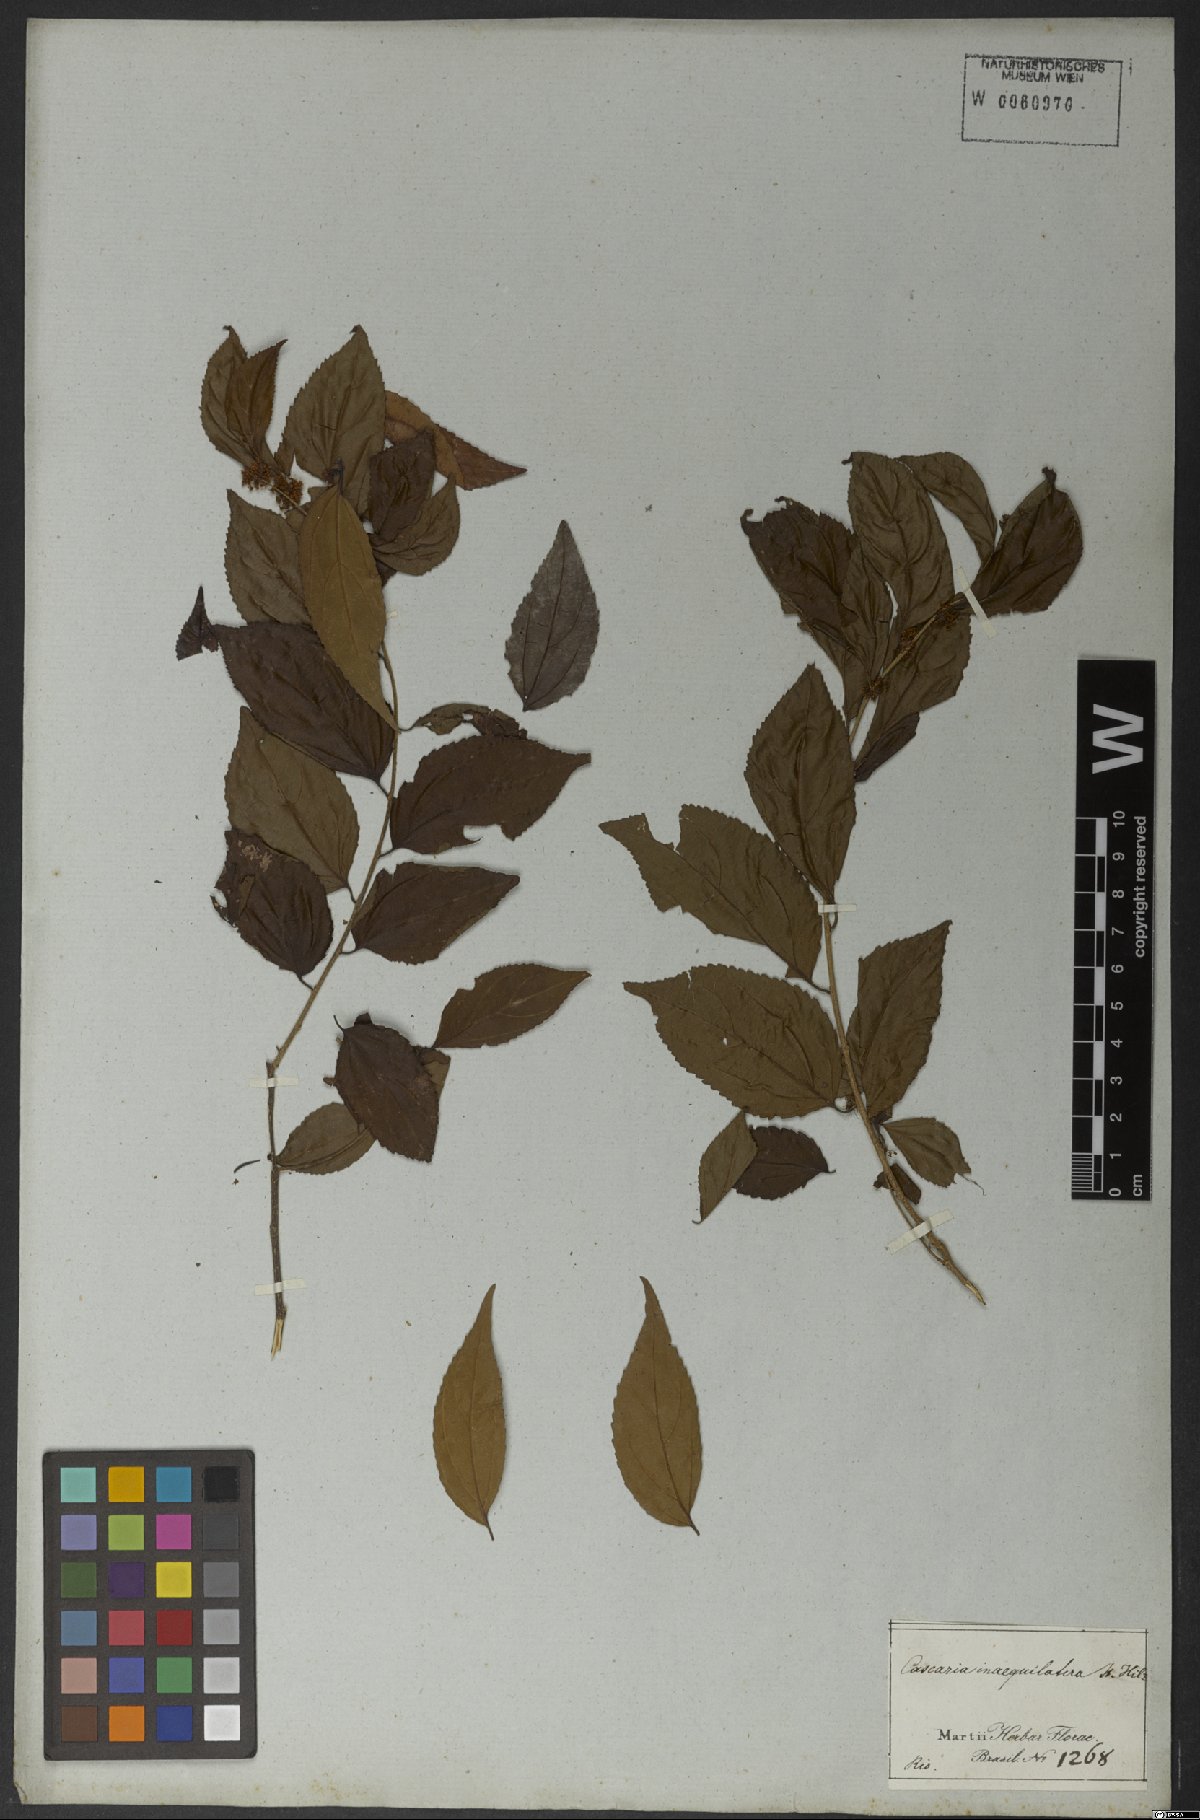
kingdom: Plantae
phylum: Tracheophyta
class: Magnoliopsida
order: Malpighiales
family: Salicaceae
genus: Casearia
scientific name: Casearia obliqua
